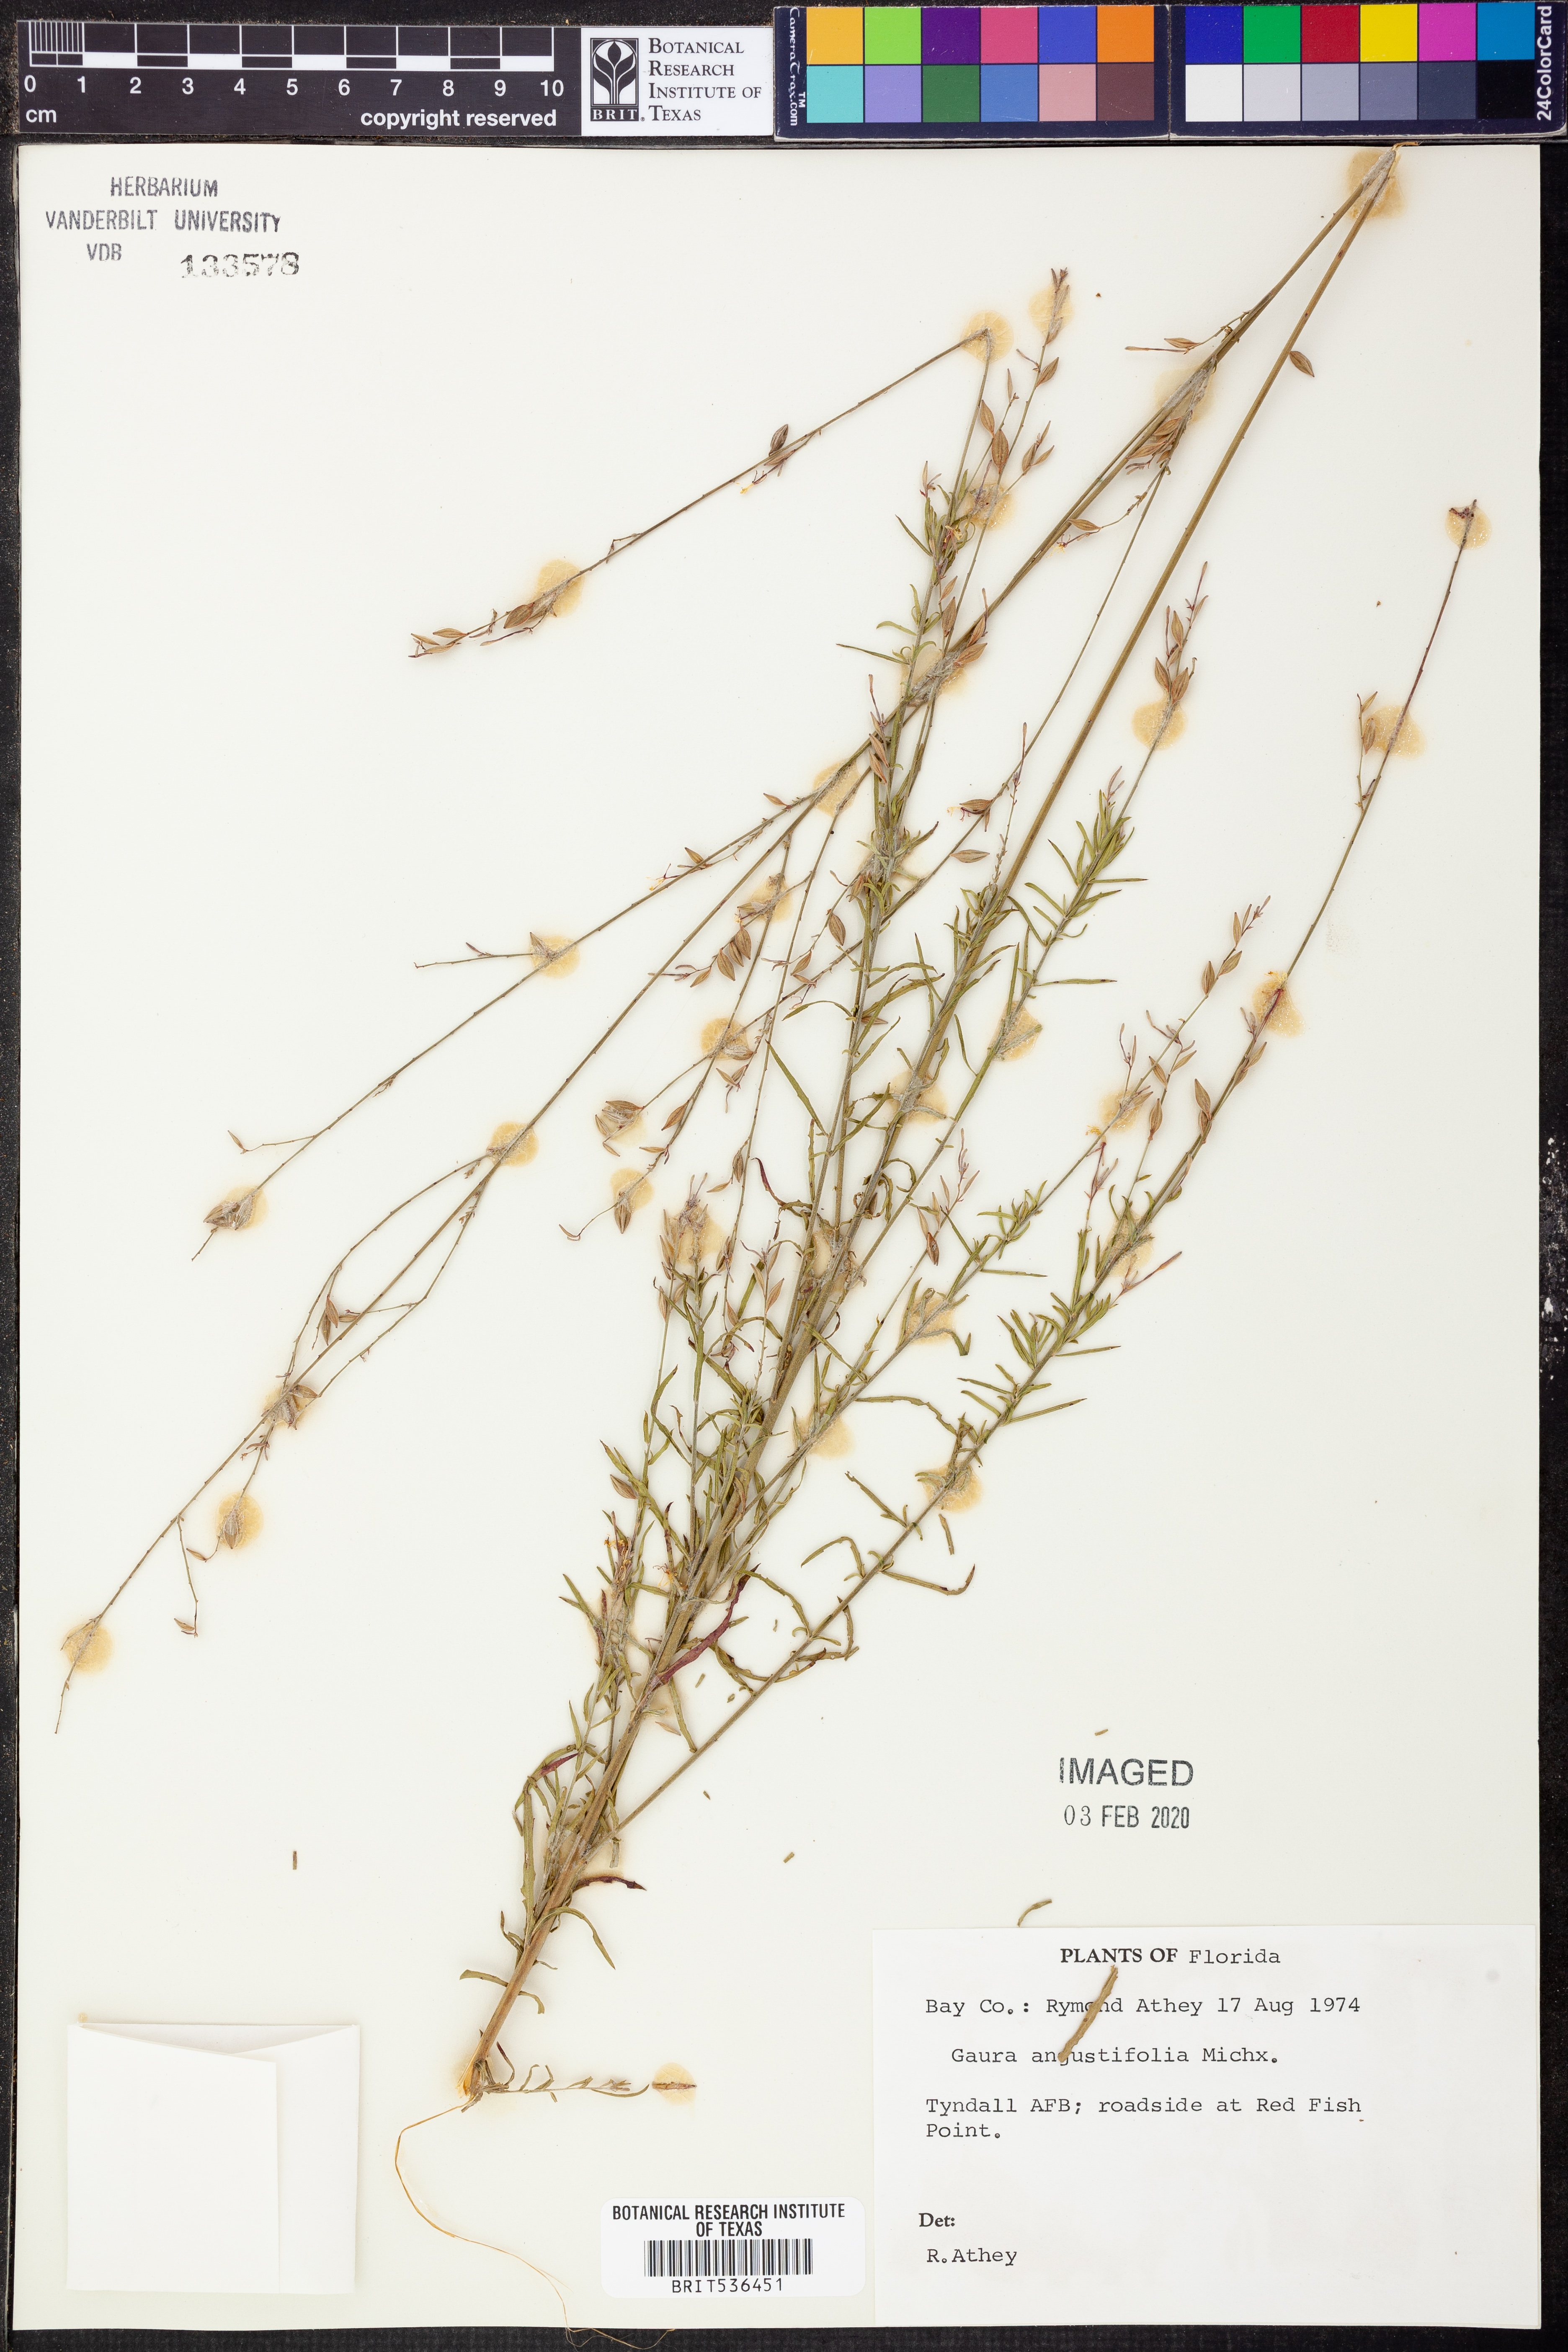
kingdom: Plantae
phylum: Tracheophyta
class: Magnoliopsida
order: Myrtales
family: Onagraceae
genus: Oenothera
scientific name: Oenothera simulans
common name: Southern beeblossom
